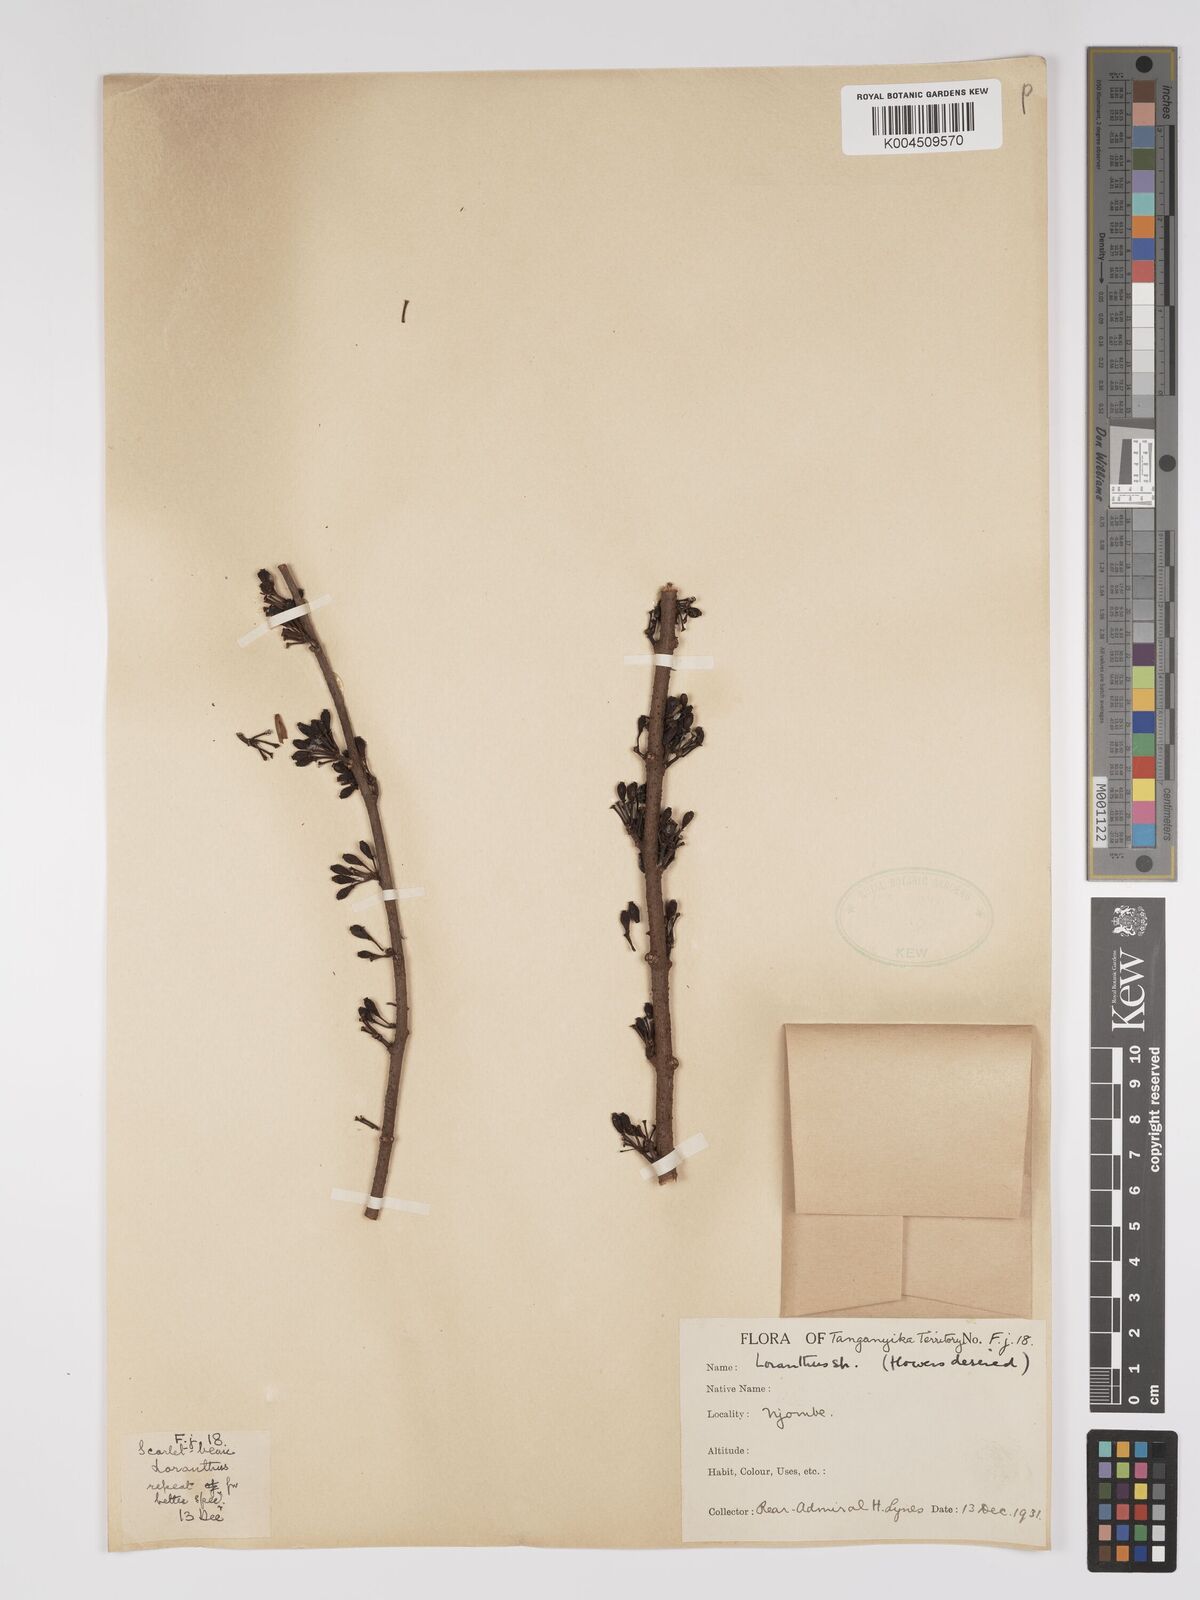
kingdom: Plantae
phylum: Tracheophyta
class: Magnoliopsida
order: Santalales
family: Loranthaceae
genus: Englerina
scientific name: Englerina inaequilatera
